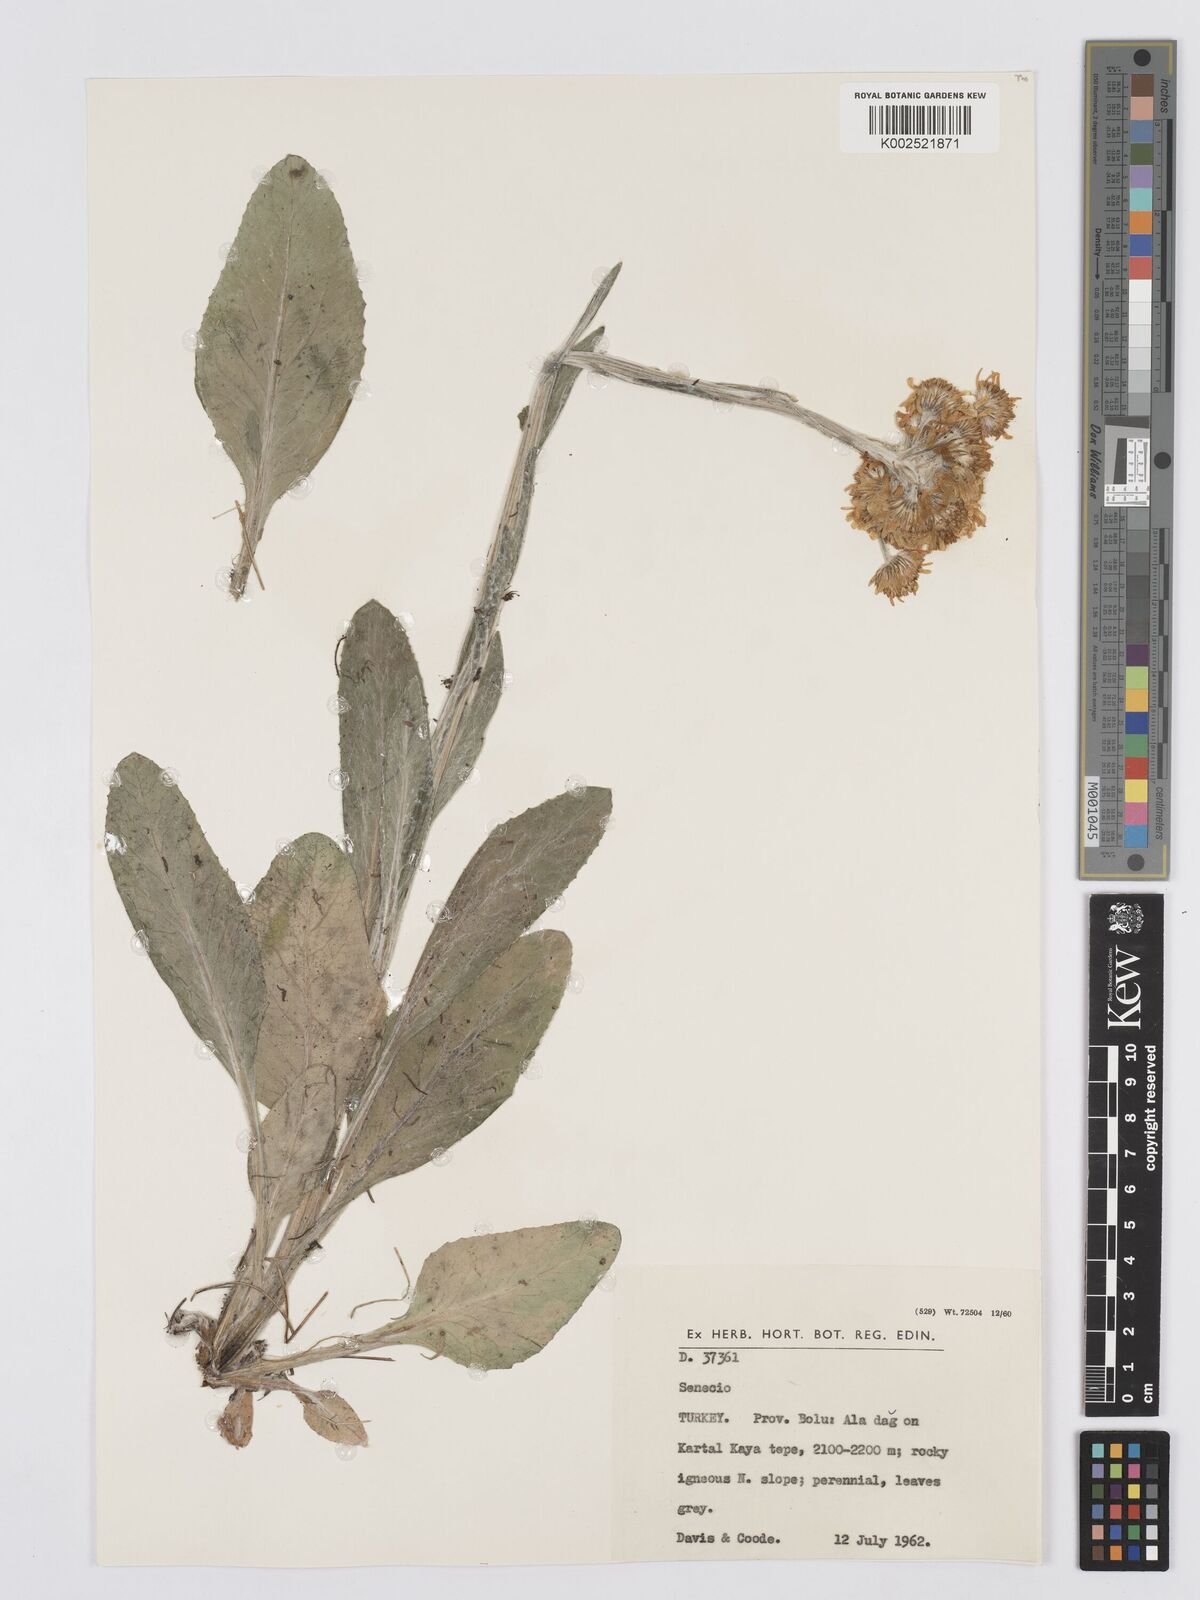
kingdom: Plantae
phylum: Tracheophyta
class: Magnoliopsida
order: Asterales
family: Asteraceae
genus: Tephroseris
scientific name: Tephroseris papposa
